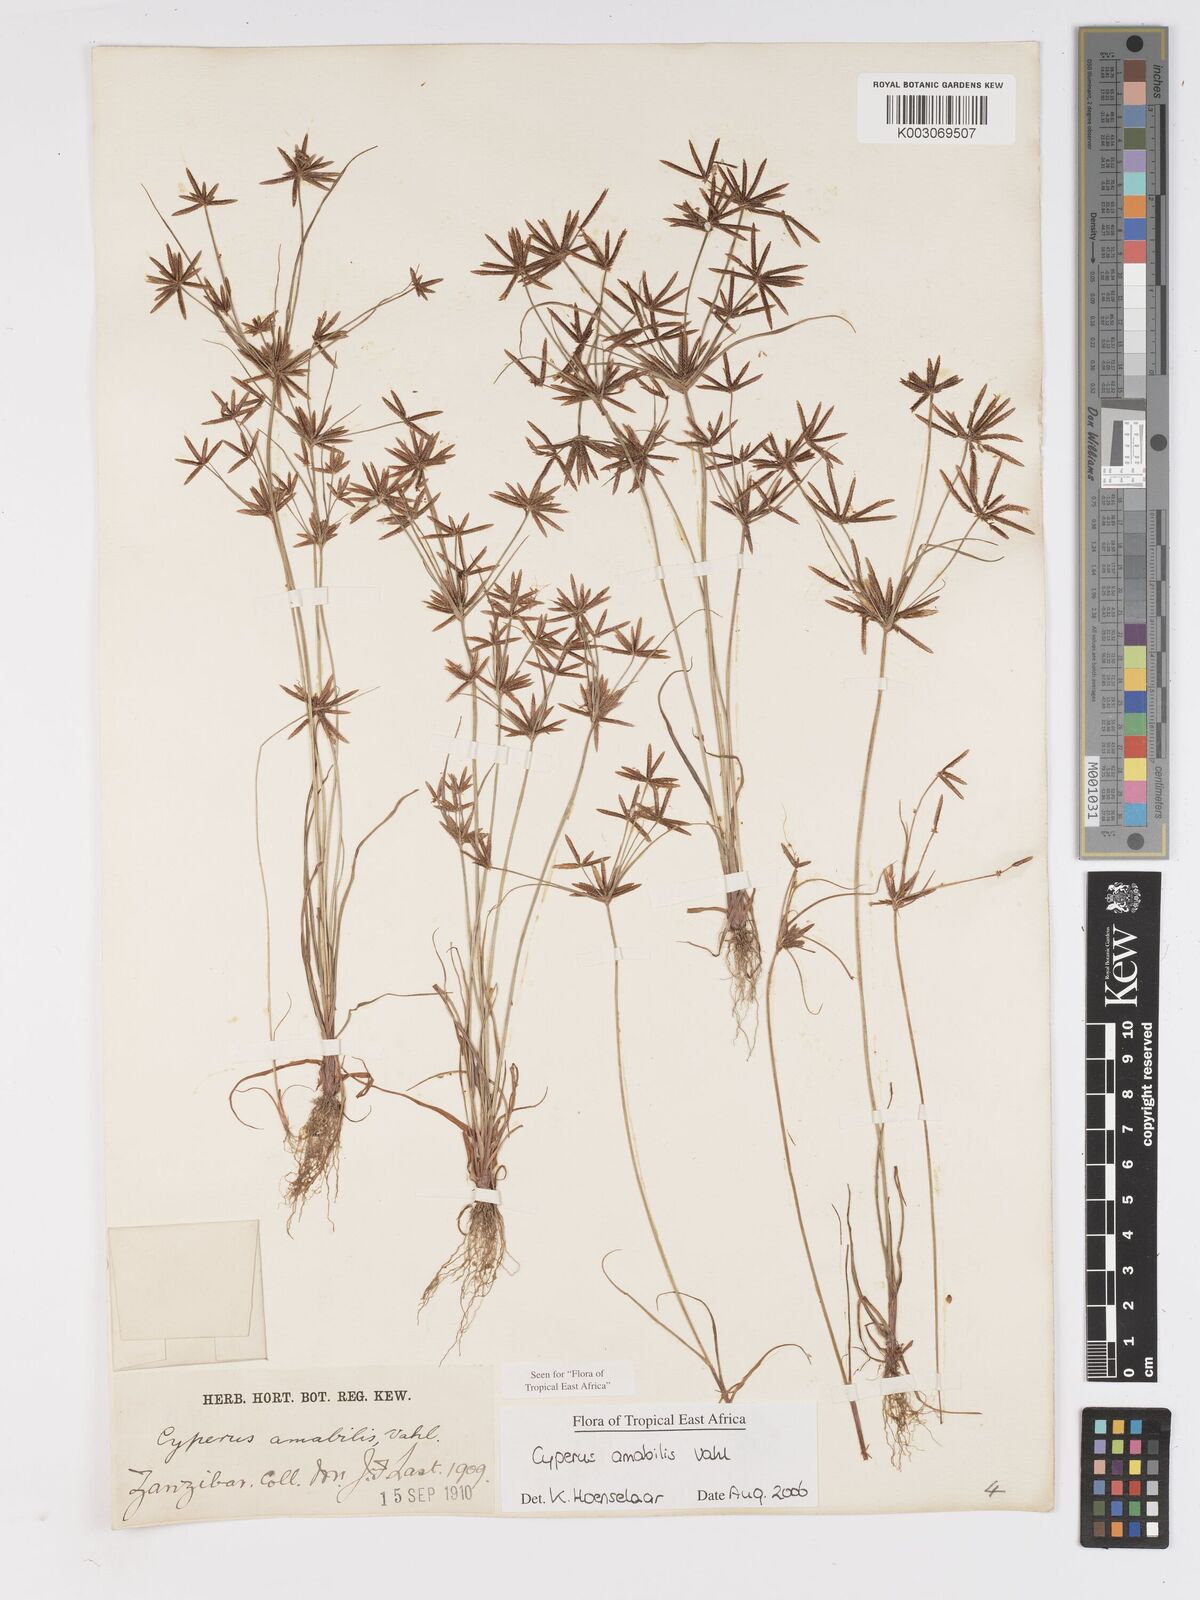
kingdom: Plantae
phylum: Tracheophyta
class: Liliopsida
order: Poales
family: Cyperaceae
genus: Cyperus
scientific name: Cyperus amabilis
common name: Foothill flat sedge
